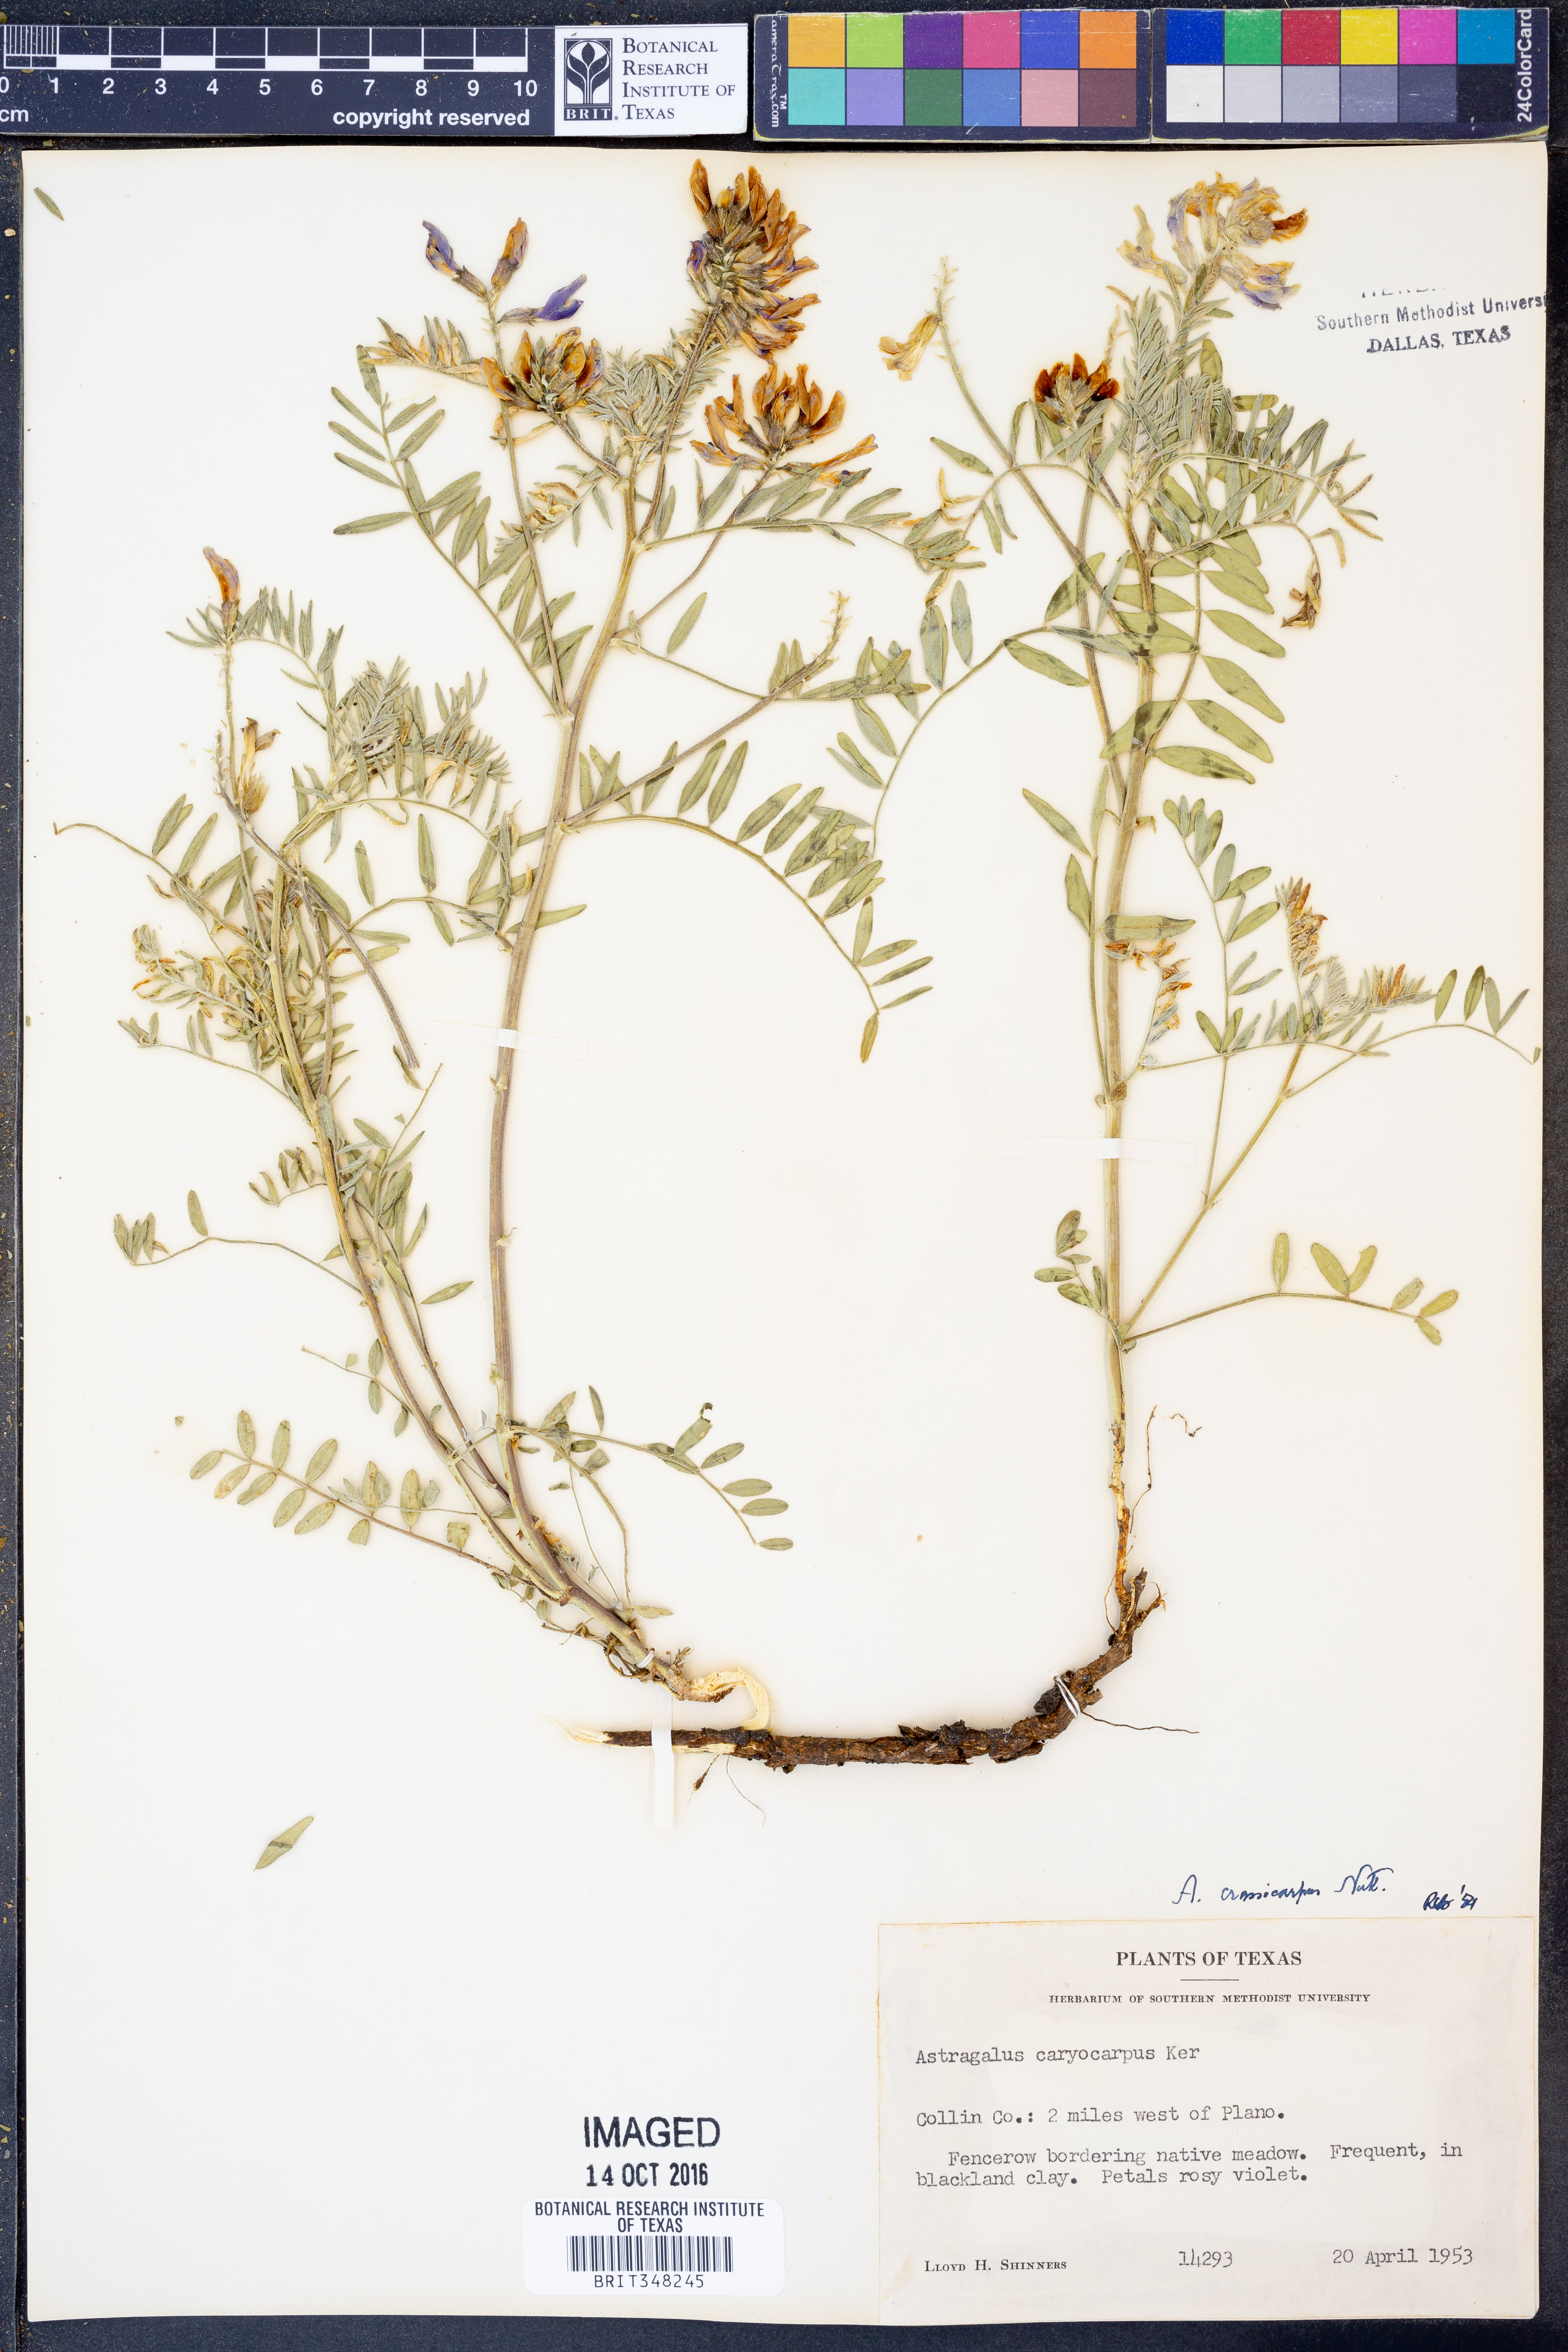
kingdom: Plantae
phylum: Tracheophyta
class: Magnoliopsida
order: Fabales
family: Fabaceae
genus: Astragalus
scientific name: Astragalus crassicarpus
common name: Ground-plum milk-vetch
